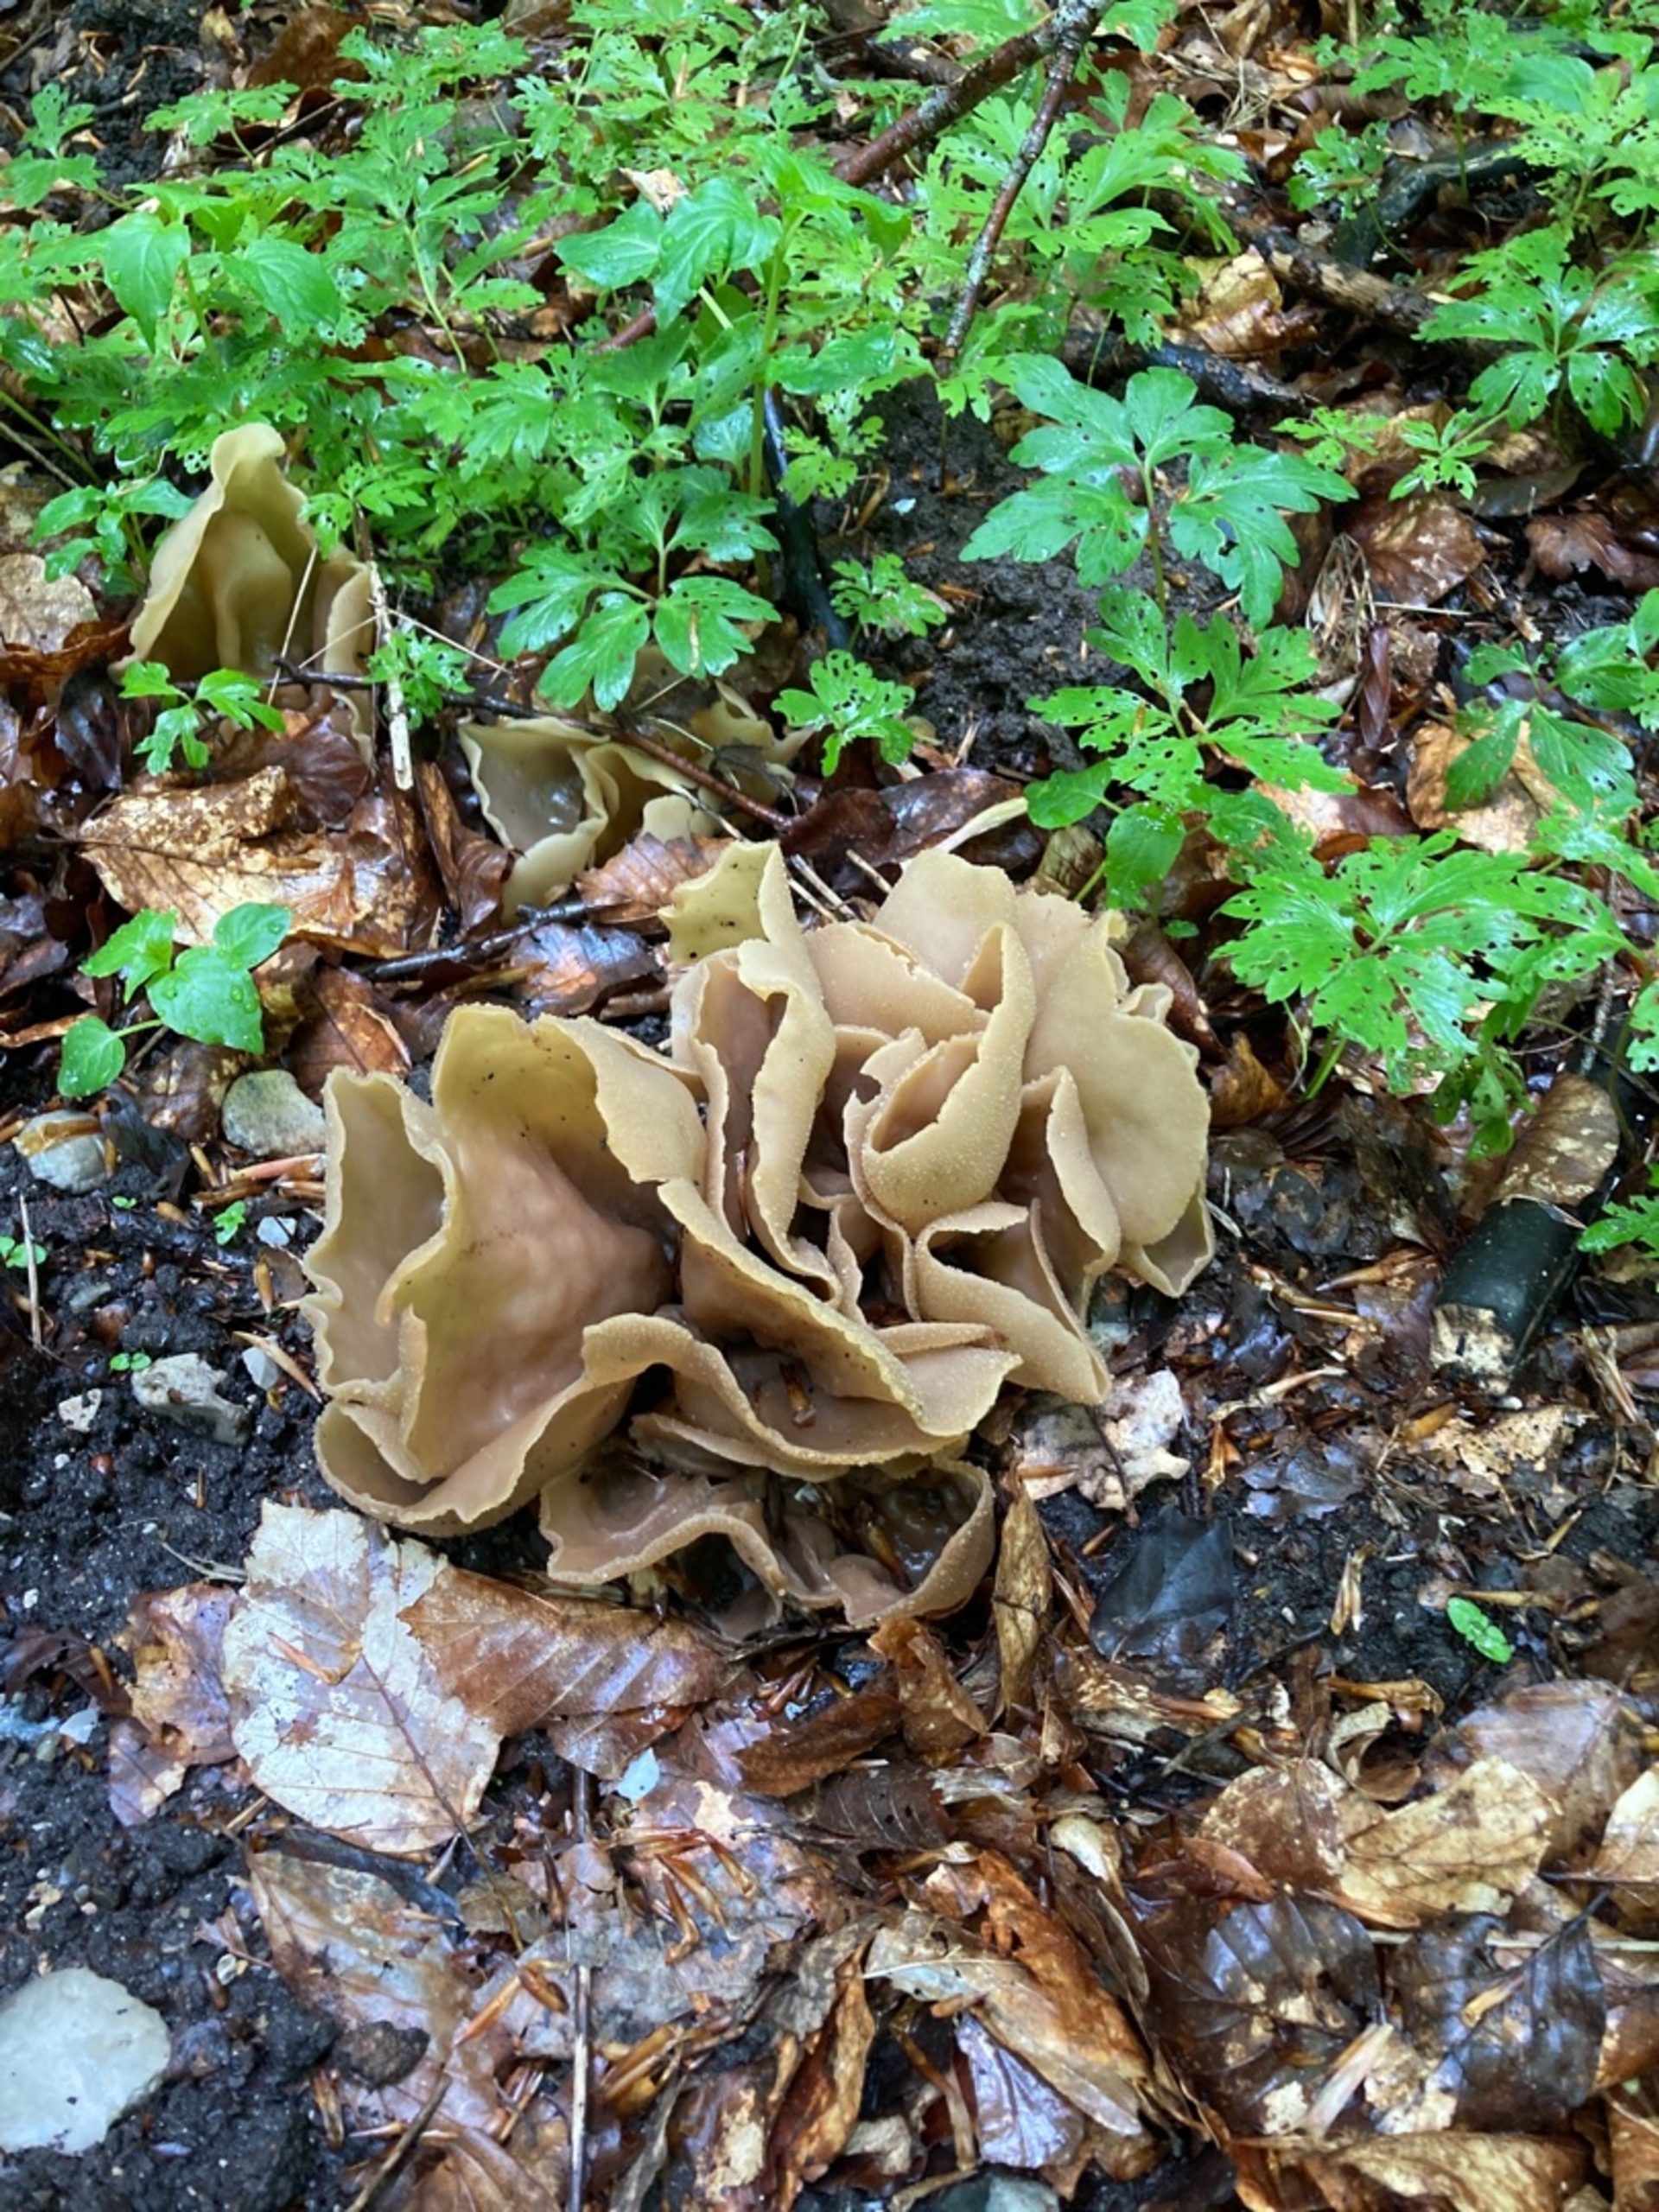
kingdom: Fungi
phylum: Ascomycota
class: Pezizomycetes
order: Pezizales
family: Pezizaceae
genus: Peziza
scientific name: Peziza
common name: Bægersvamp
